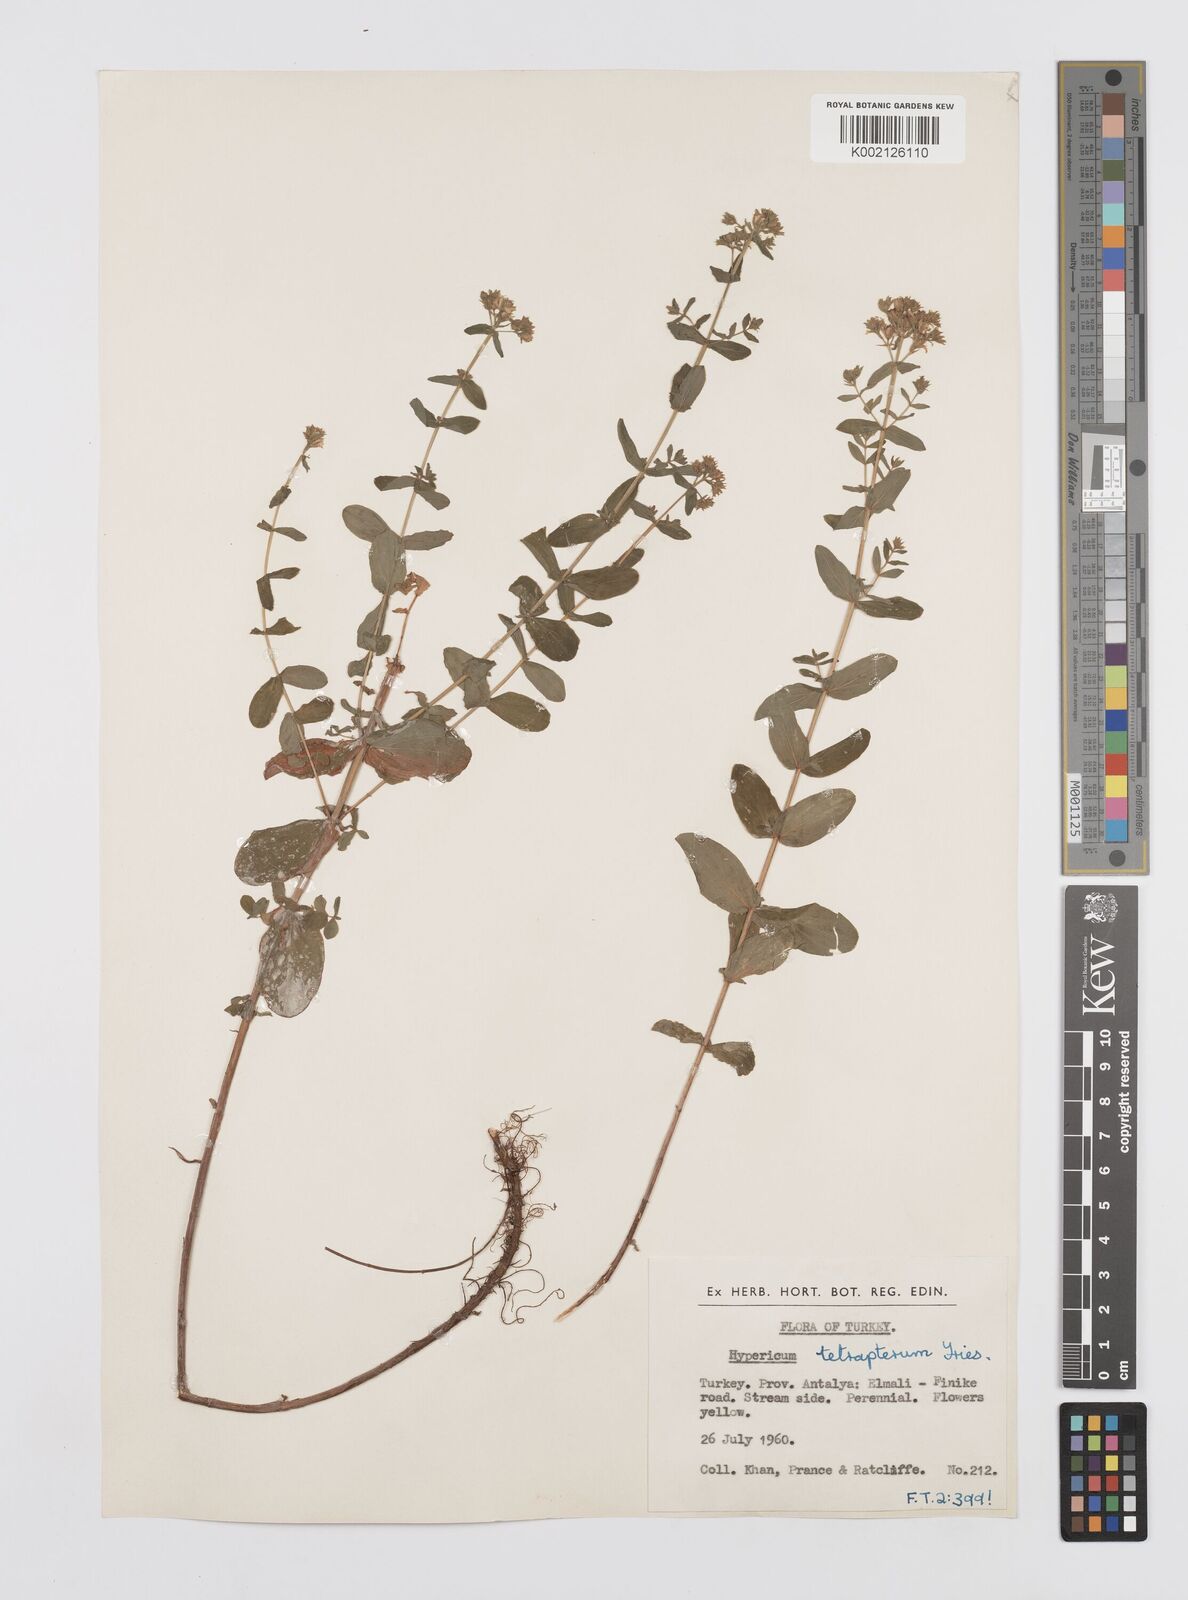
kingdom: Plantae
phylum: Tracheophyta
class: Magnoliopsida
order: Malpighiales
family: Hypericaceae
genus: Hypericum
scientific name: Hypericum tetrapterum
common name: Square-stalked st. john's-wort
